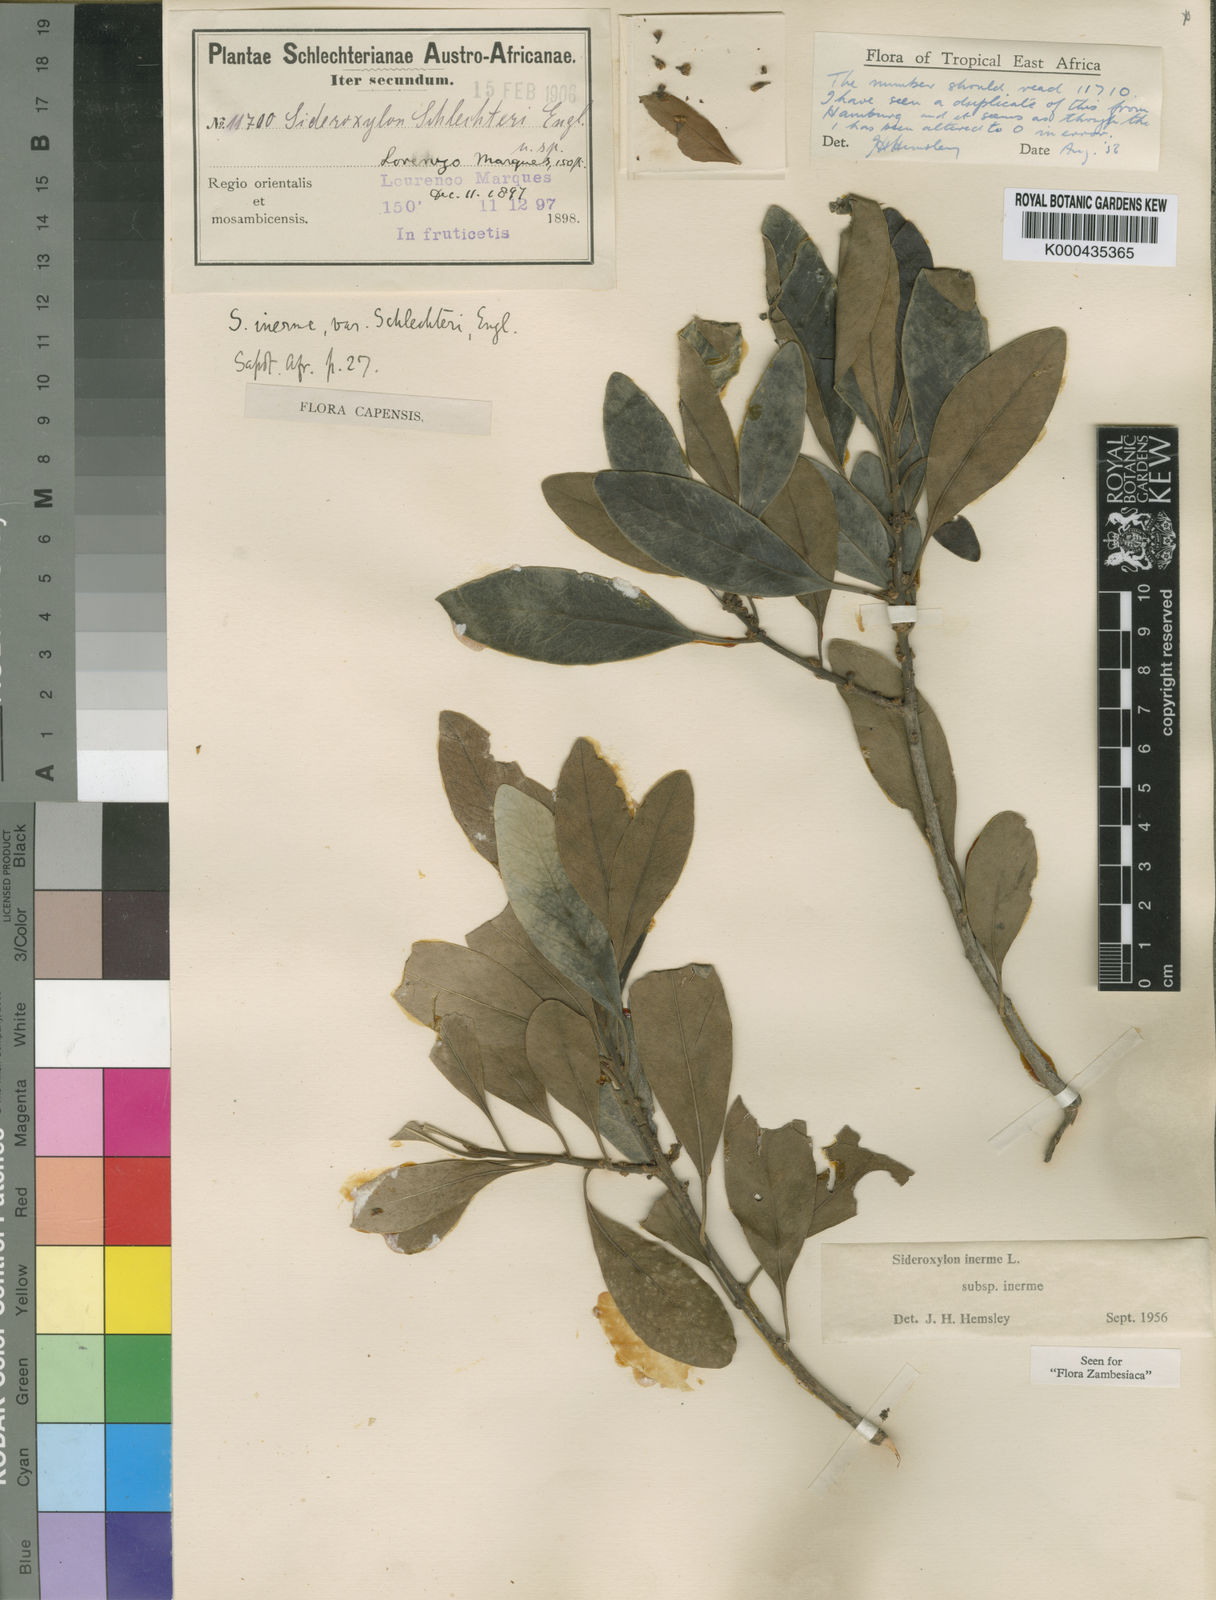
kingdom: Plantae
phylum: Tracheophyta
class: Magnoliopsida
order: Ericales
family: Sapotaceae
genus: Sideroxylon
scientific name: Sideroxylon inerme
